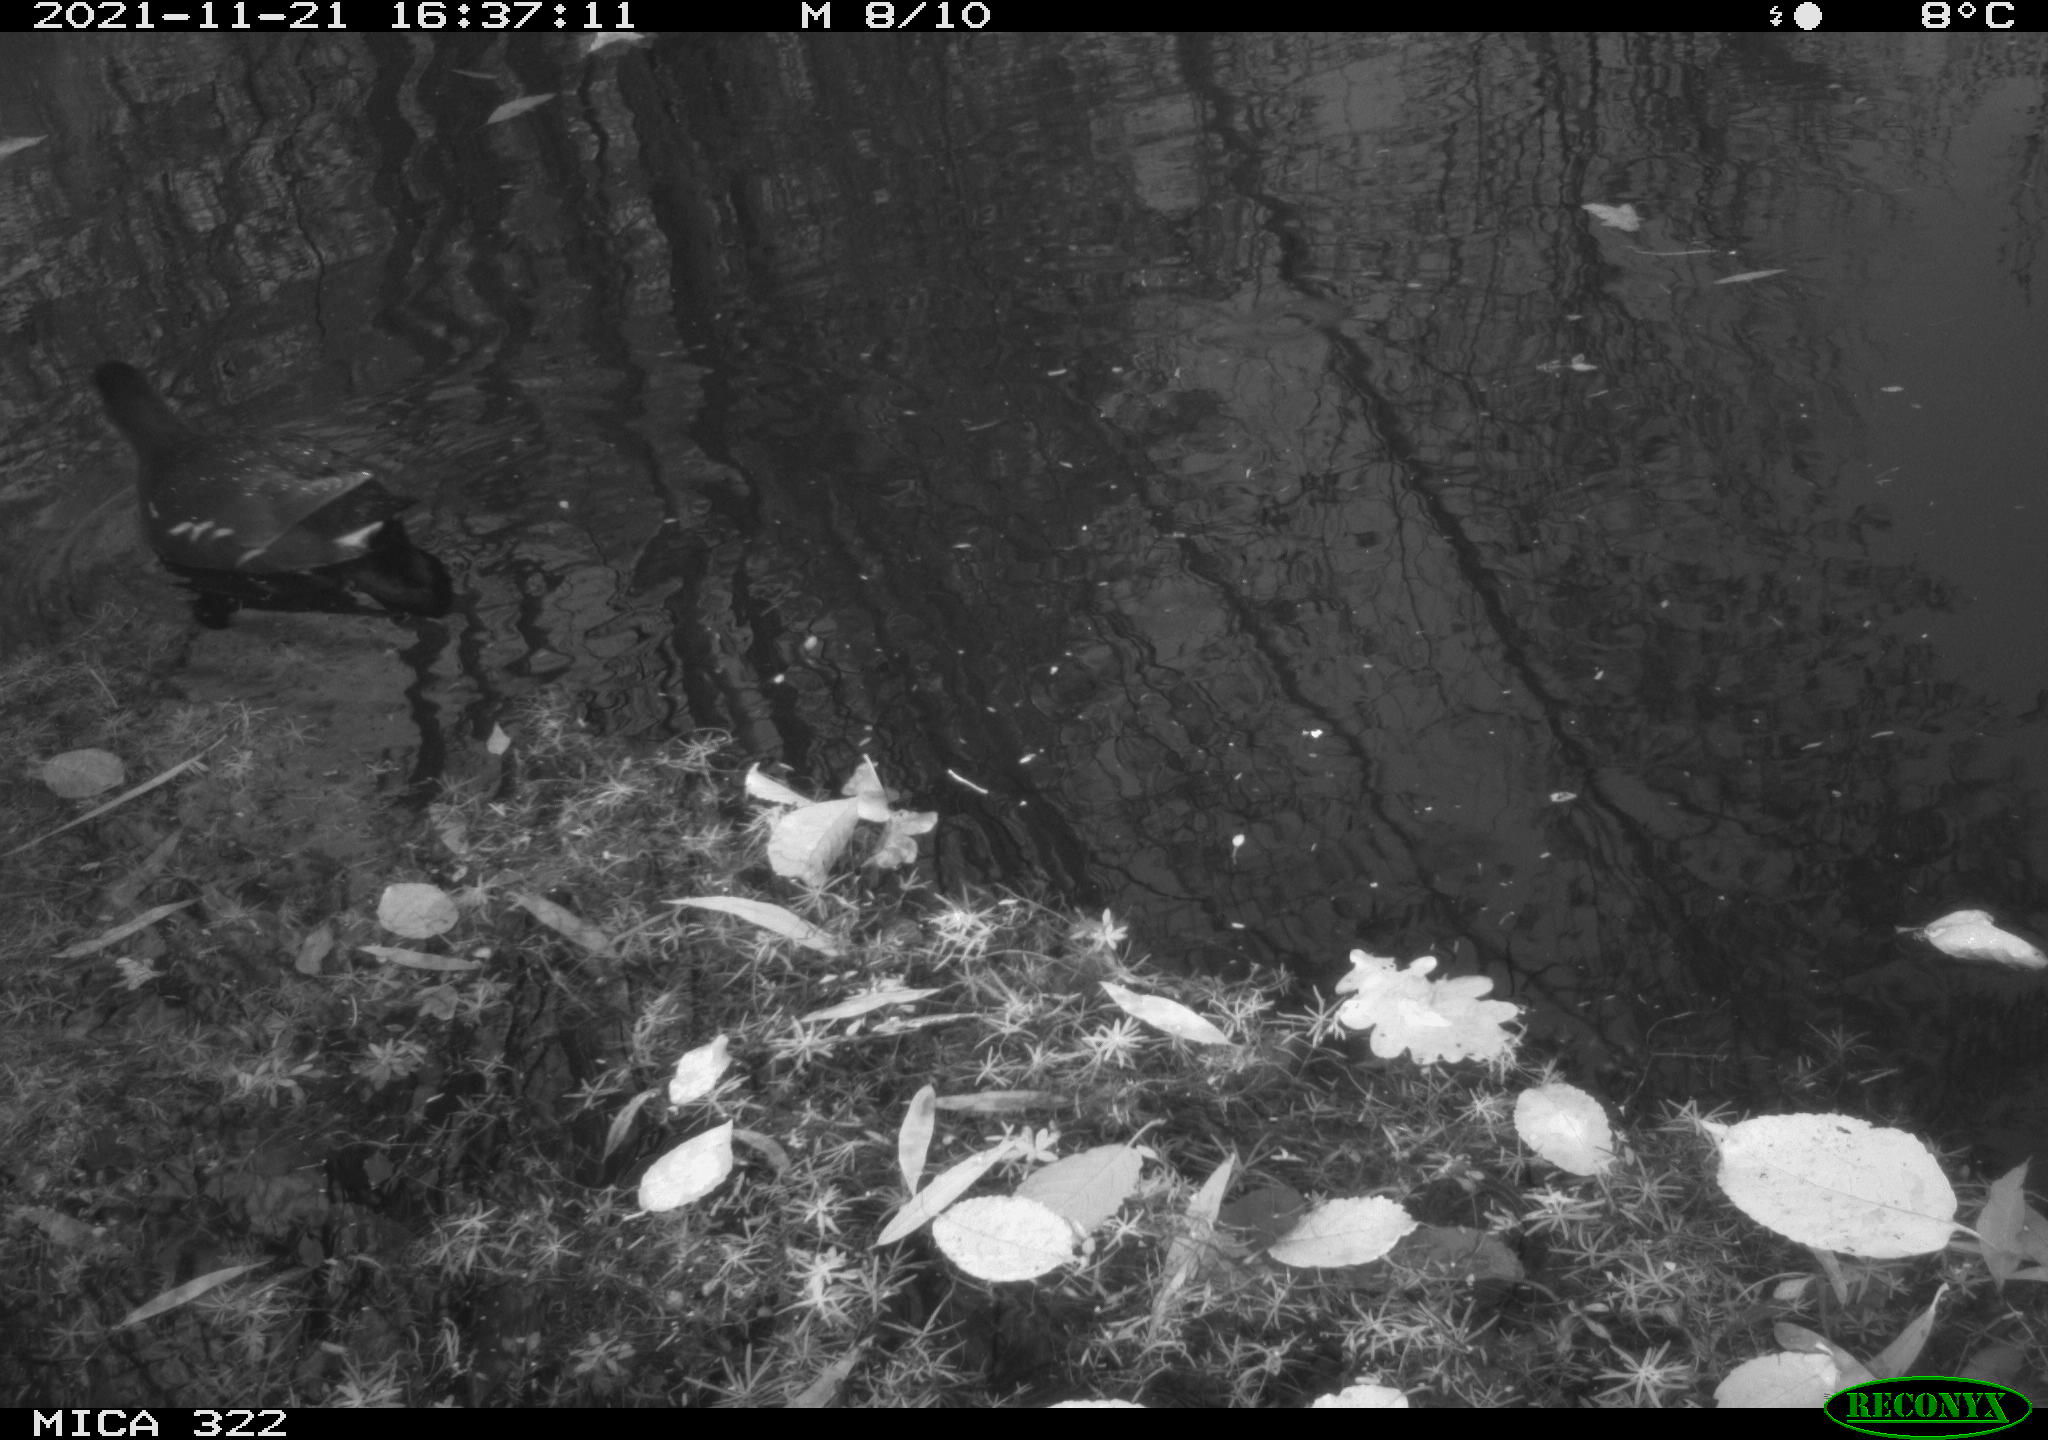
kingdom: Animalia
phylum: Chordata
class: Aves
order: Gruiformes
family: Rallidae
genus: Gallinula
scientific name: Gallinula chloropus
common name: Common moorhen
